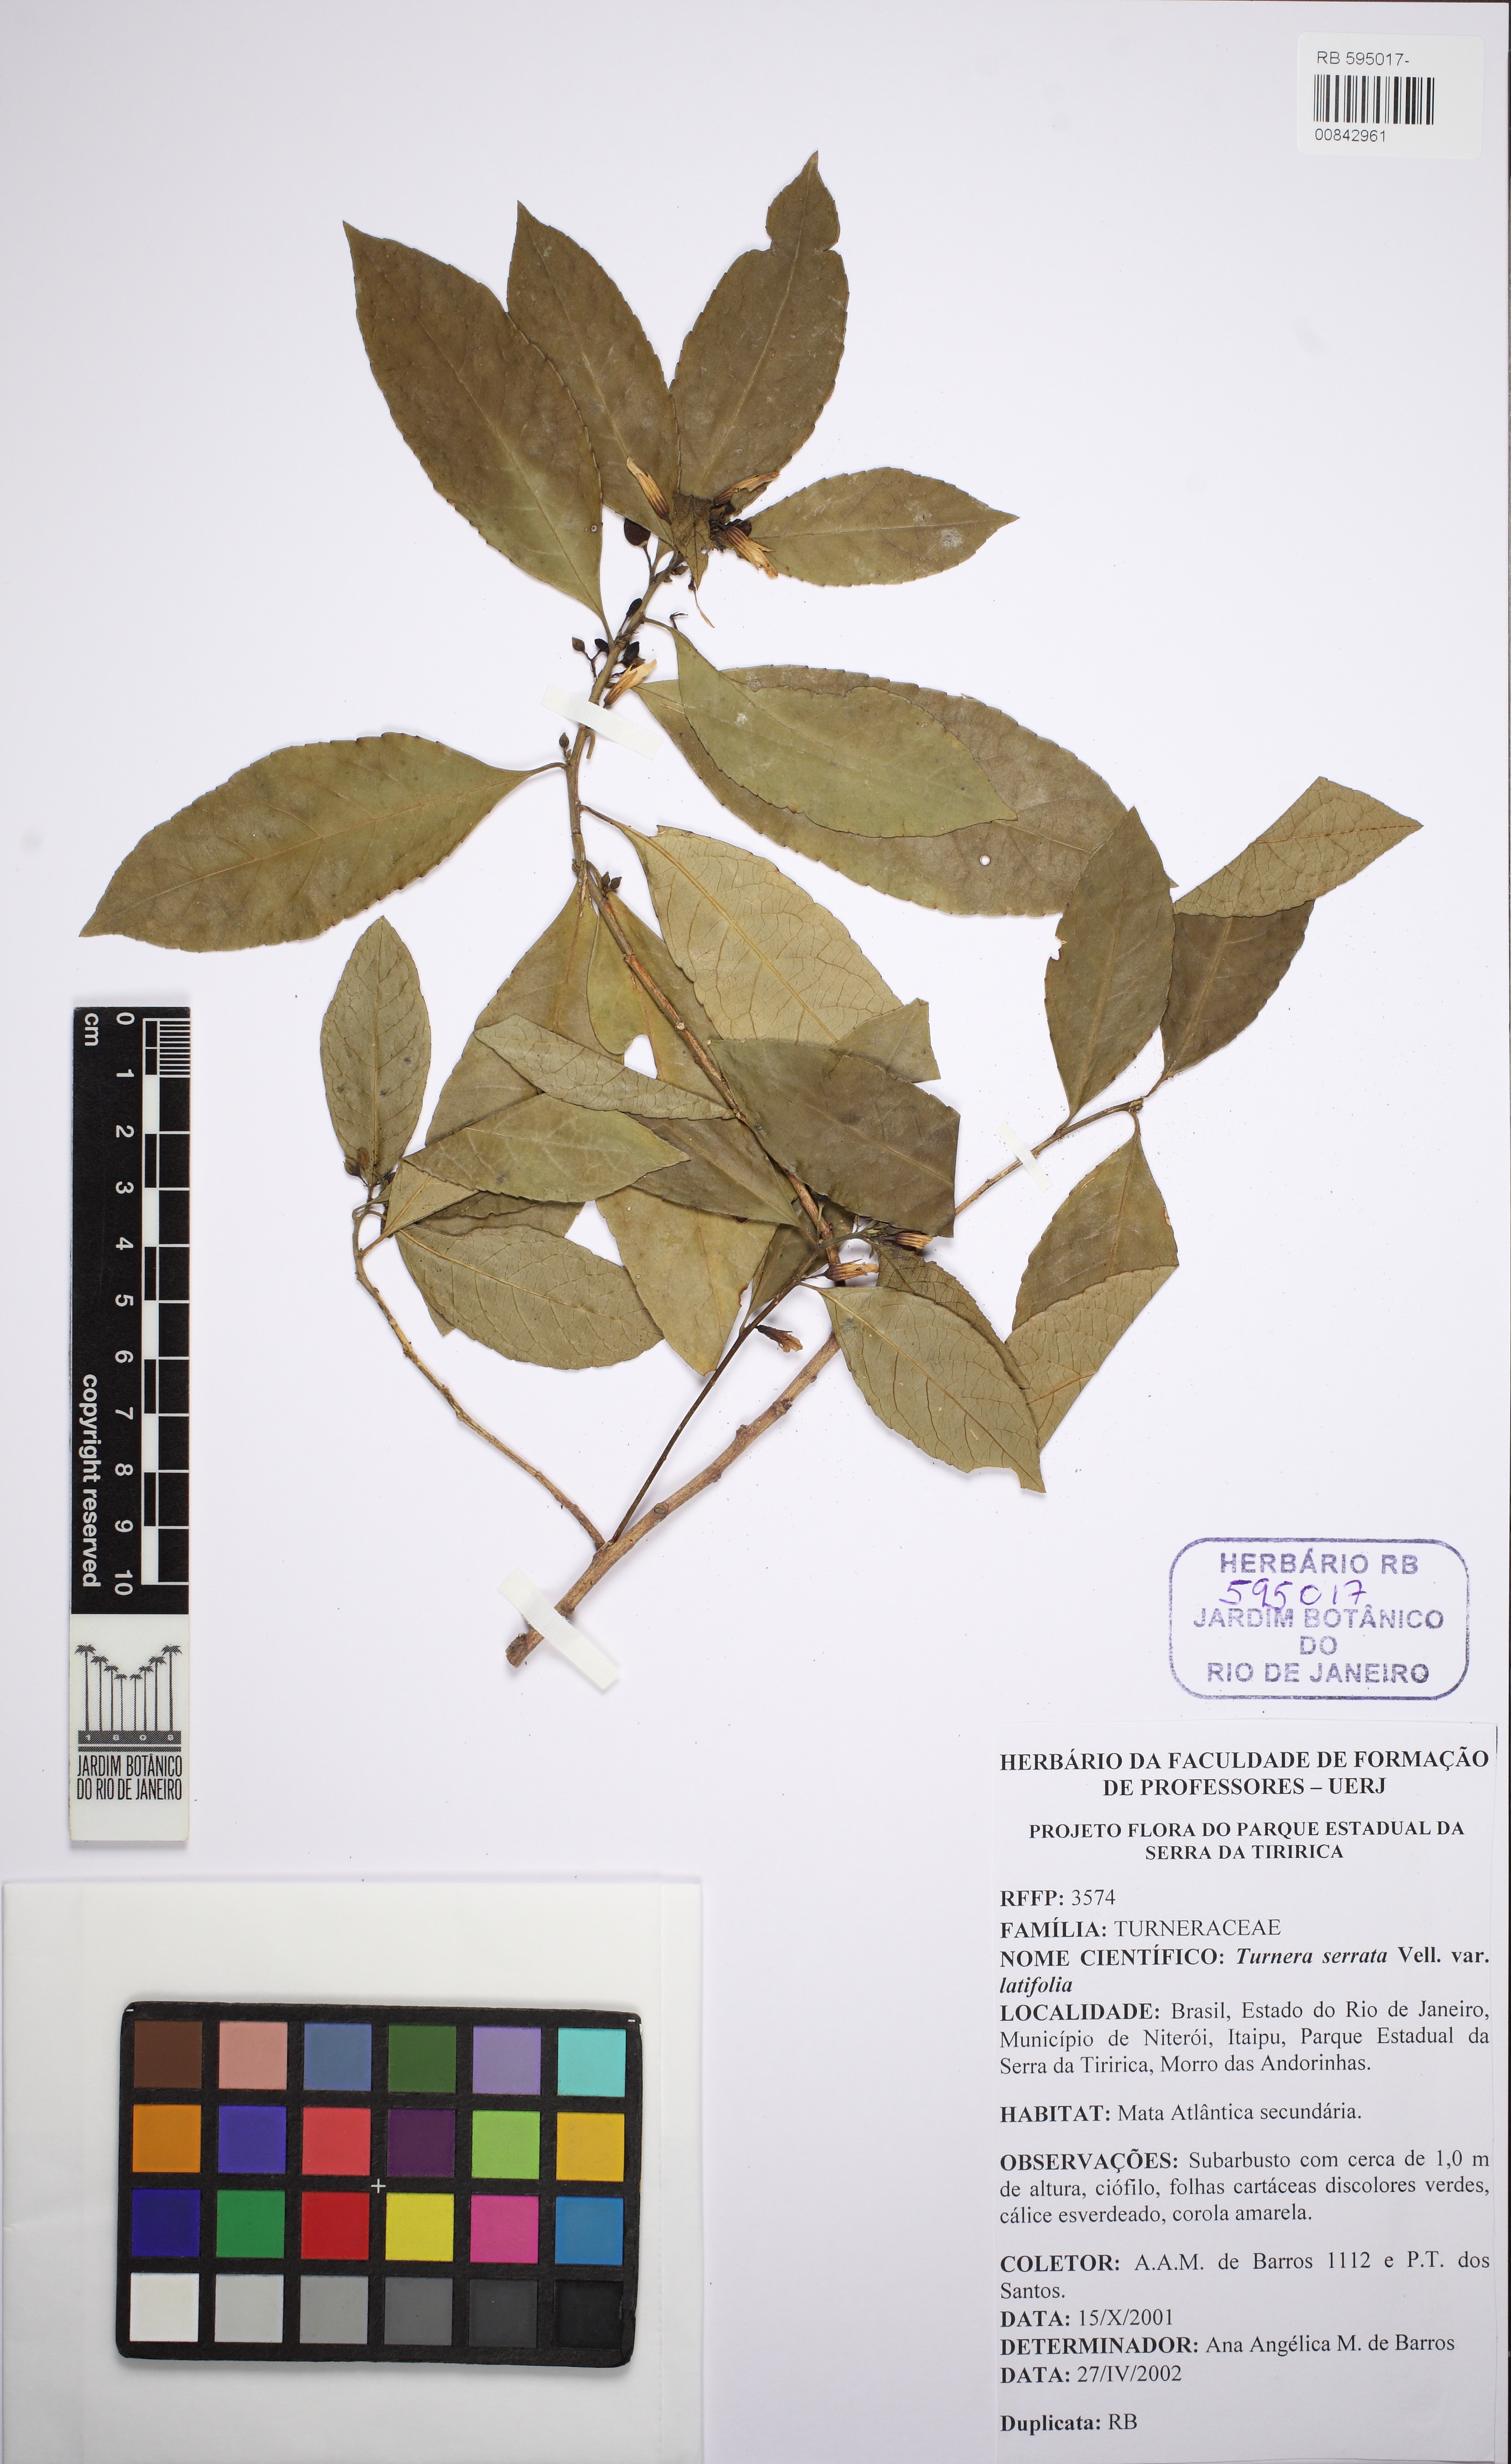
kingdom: Plantae
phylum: Tracheophyta
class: Magnoliopsida
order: Malpighiales
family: Turneraceae
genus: Turnera
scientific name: Turnera serrata
